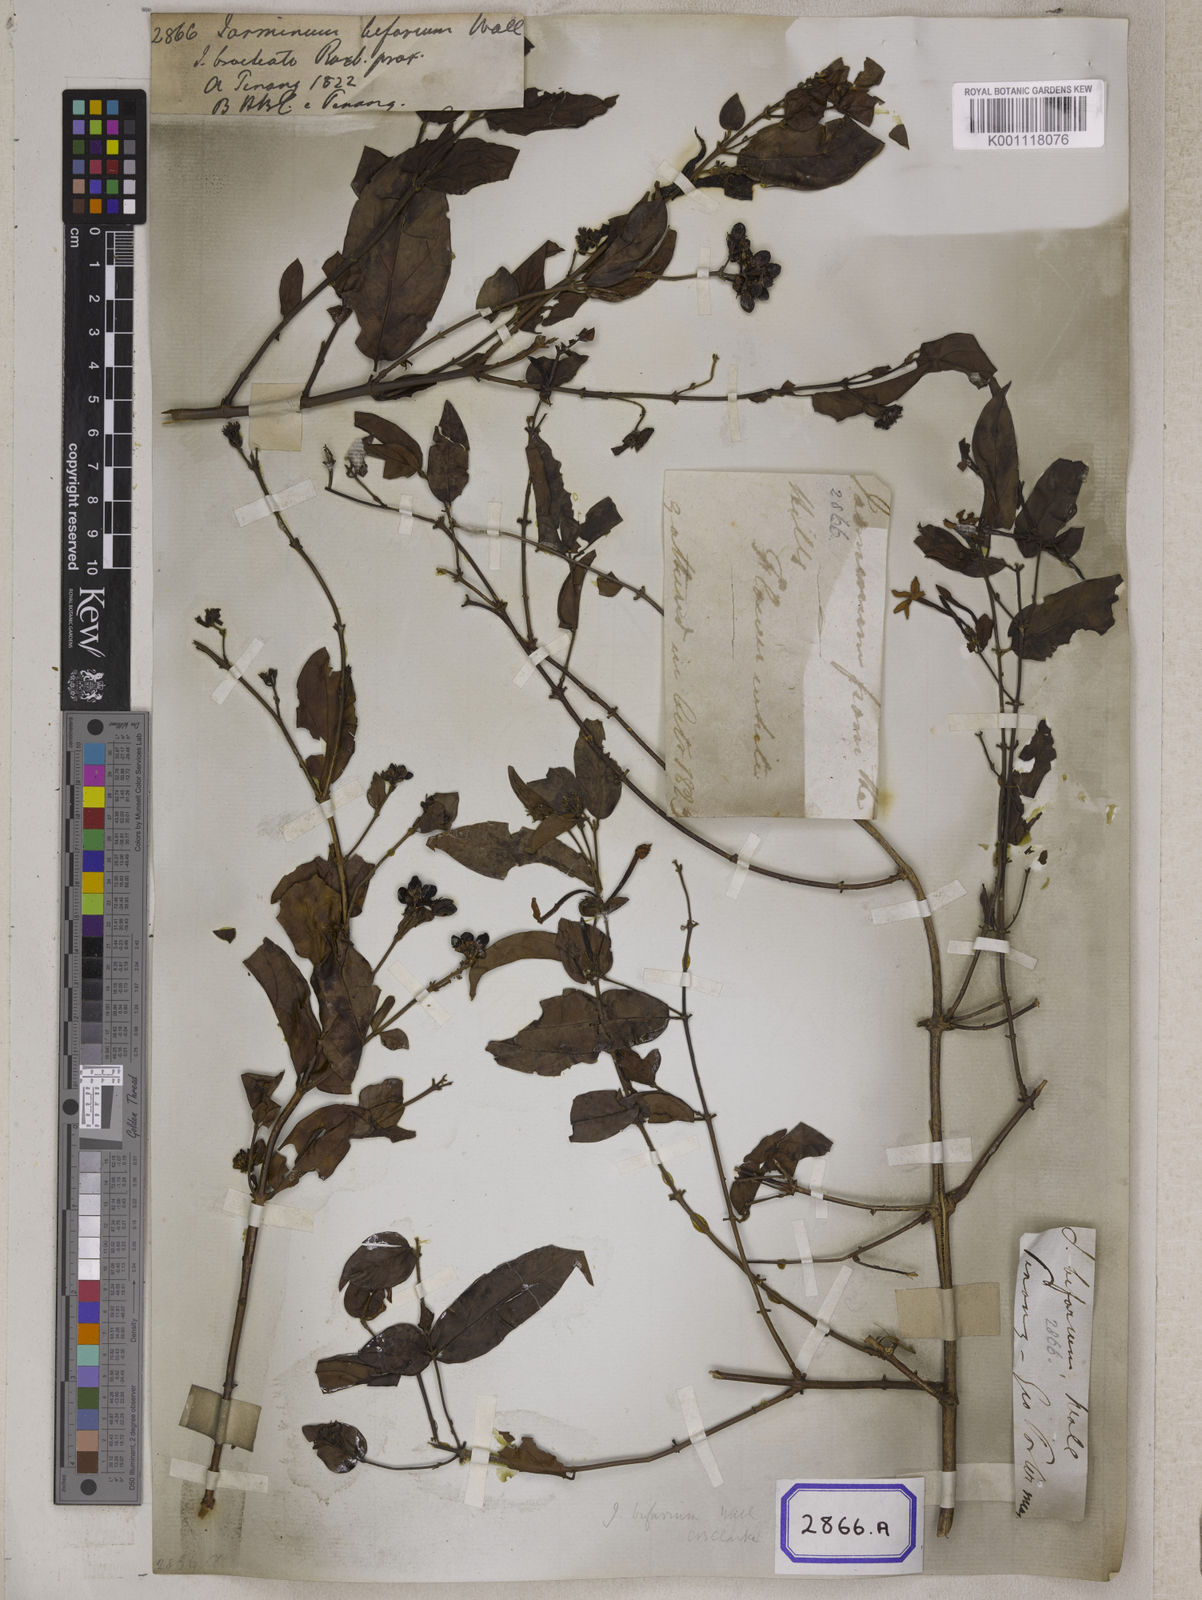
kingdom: Plantae
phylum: Tracheophyta
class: Magnoliopsida
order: Lamiales
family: Oleaceae
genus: Jasminum
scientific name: Jasminum
